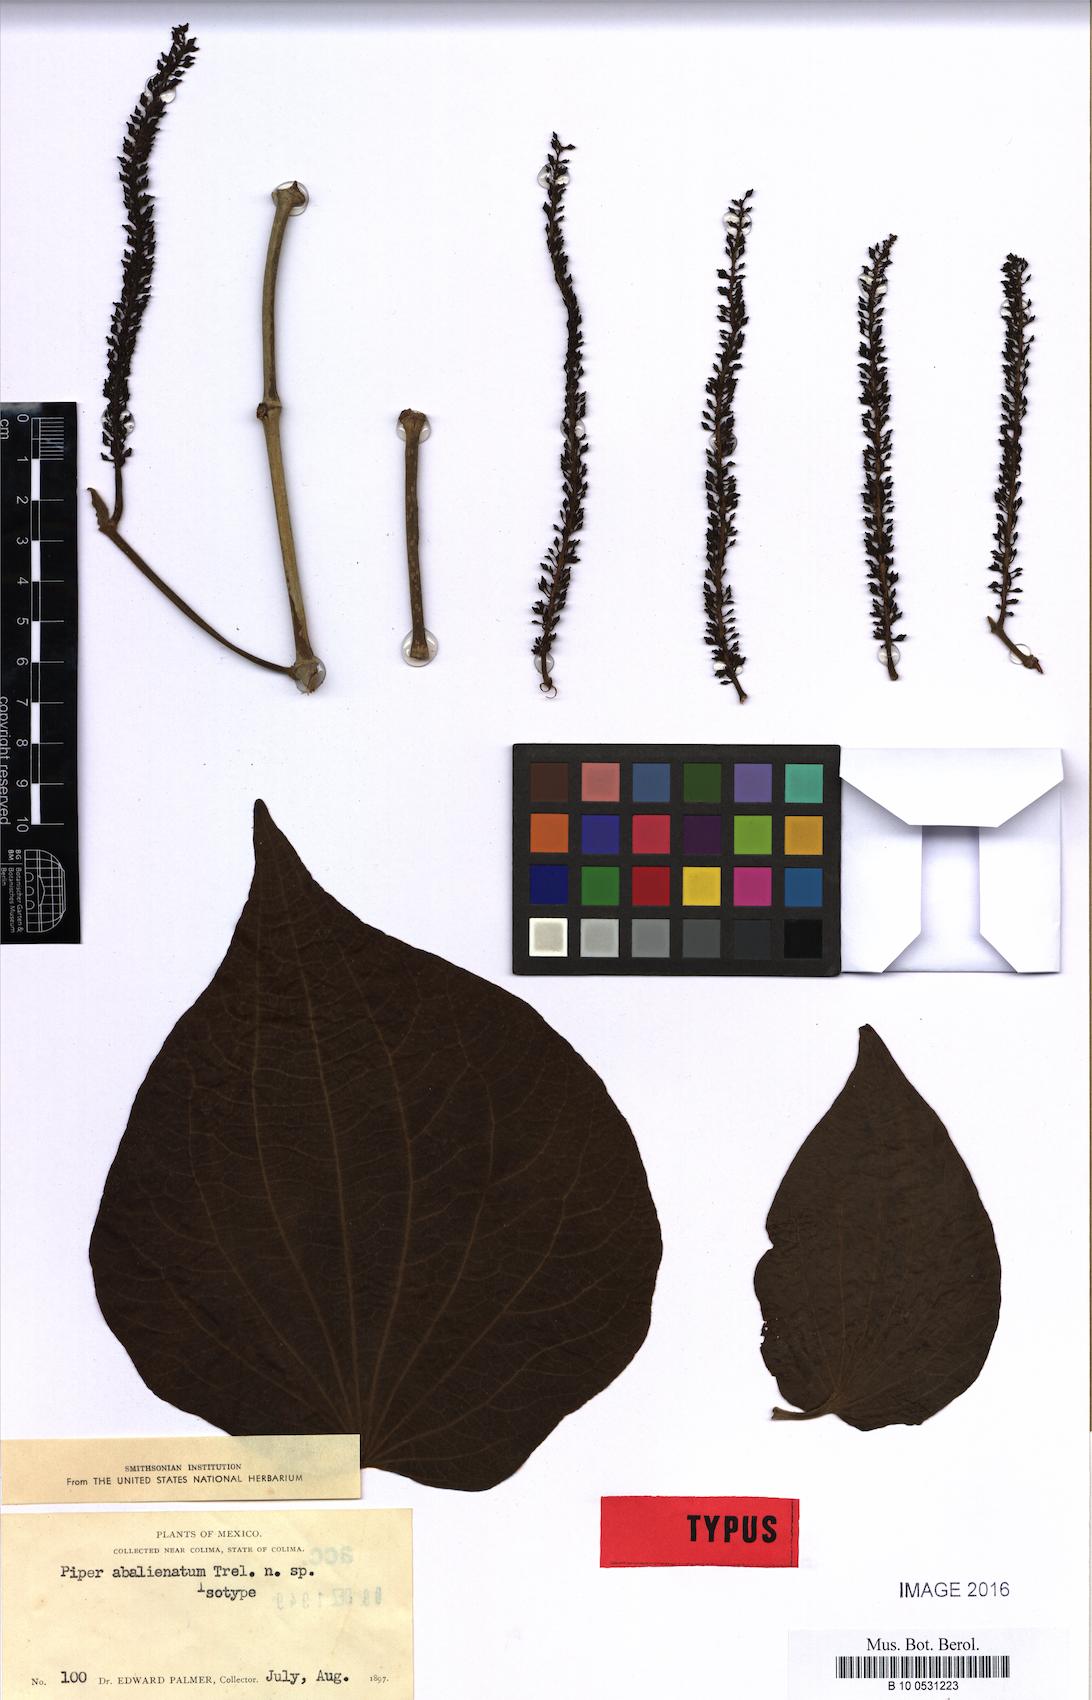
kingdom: Plantae
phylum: Tracheophyta
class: Magnoliopsida
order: Piperales
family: Piperaceae
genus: Piper
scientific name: Piper abalienatum
